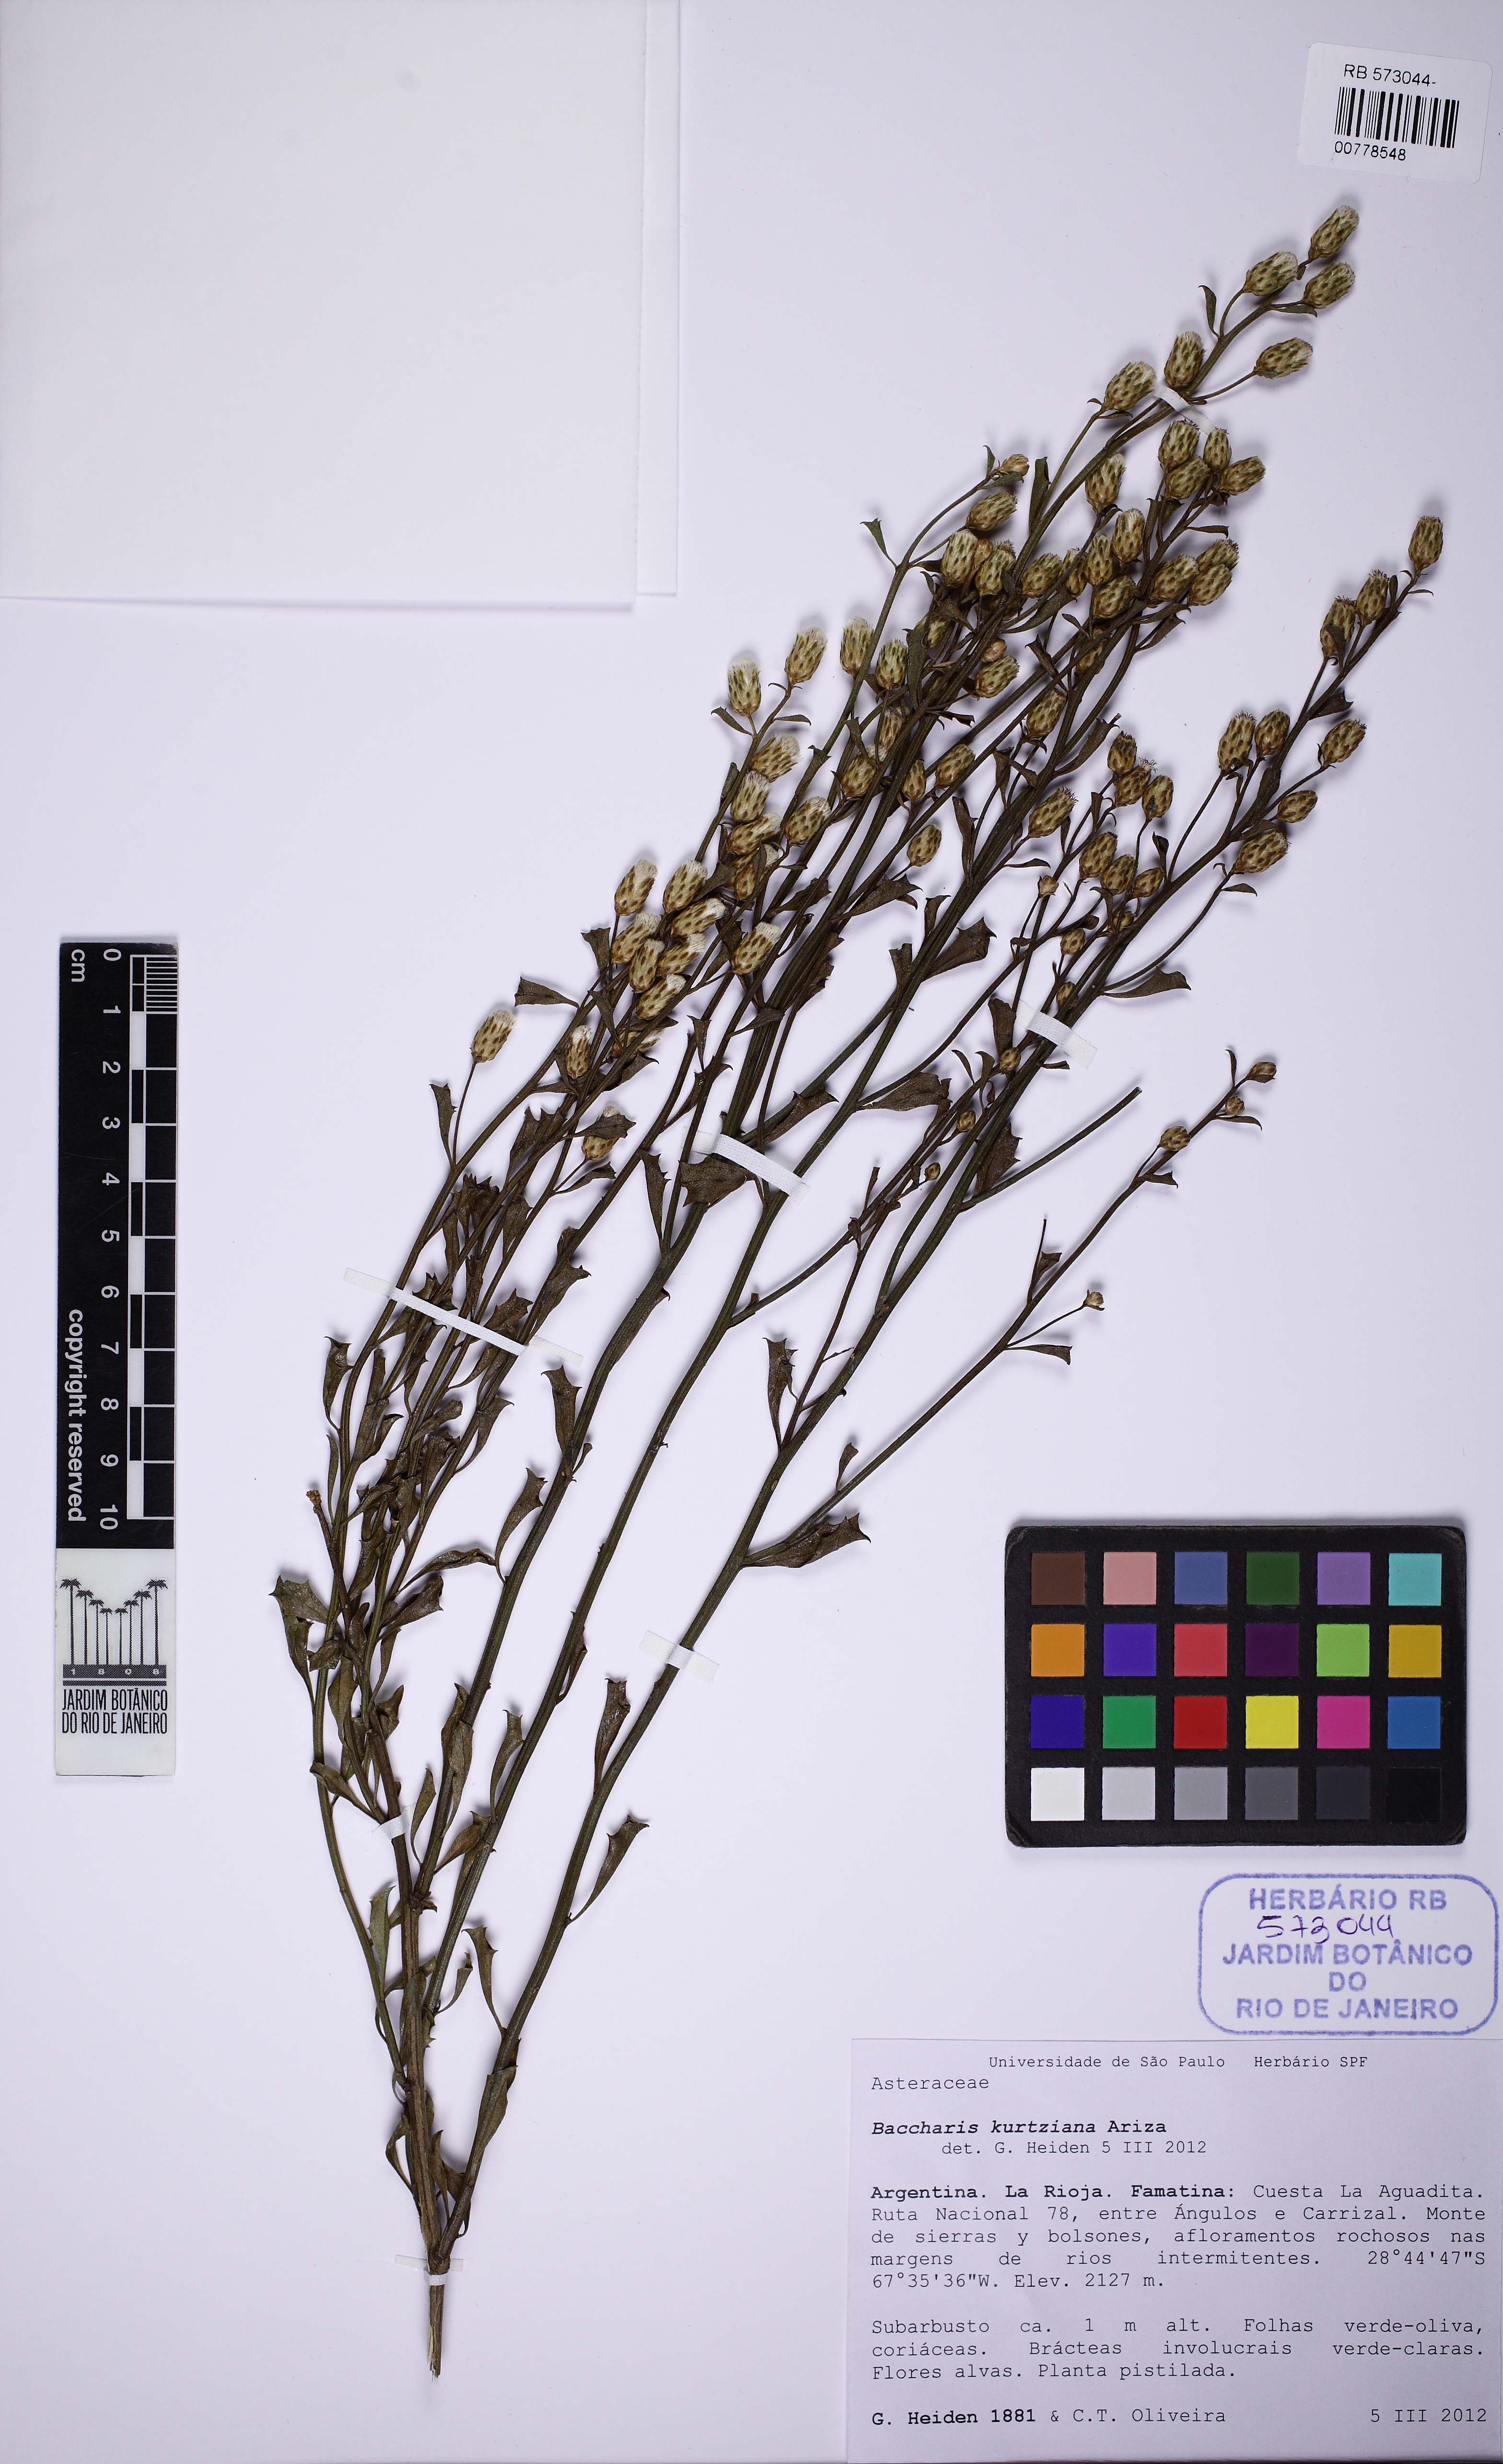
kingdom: Plantae
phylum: Tracheophyta
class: Magnoliopsida
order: Asterales
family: Asteraceae
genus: Baccharis
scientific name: Baccharis kurtziana
